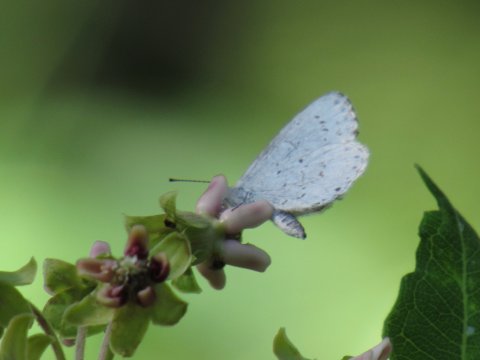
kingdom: Animalia
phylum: Arthropoda
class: Insecta
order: Lepidoptera
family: Lycaenidae
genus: Cyaniris
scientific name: Cyaniris neglecta
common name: Summer Azure
